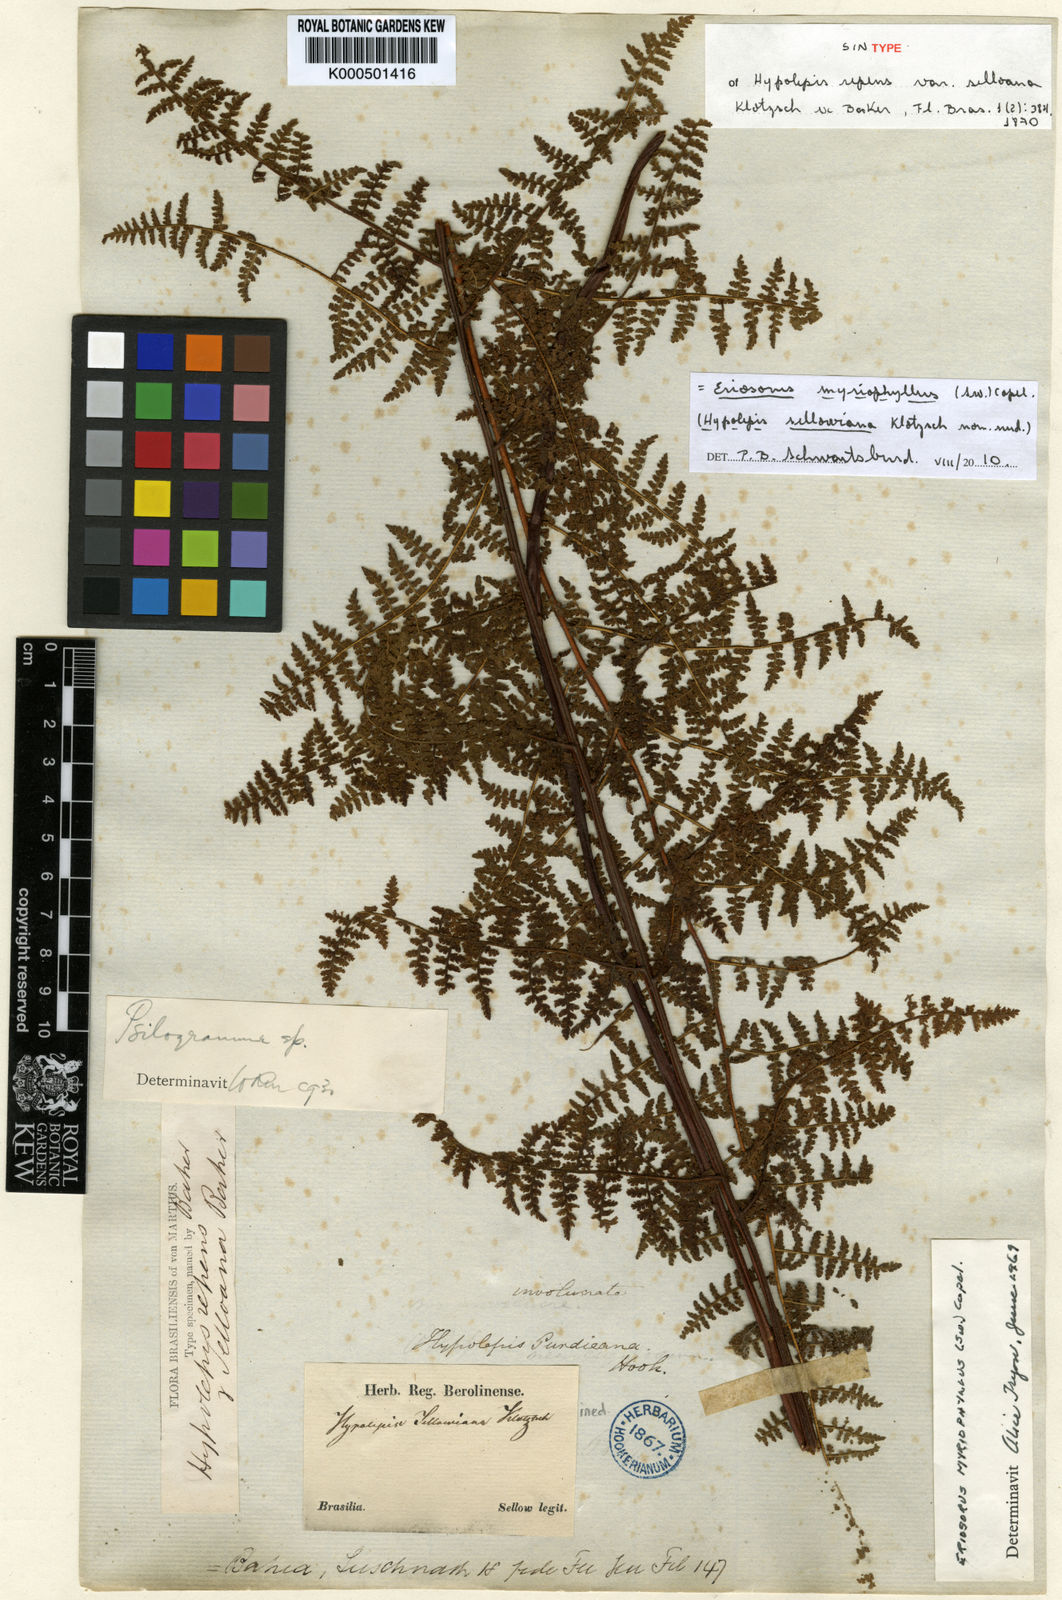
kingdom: Plantae
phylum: Tracheophyta
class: Polypodiopsida
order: Polypodiales
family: Pteridaceae
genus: Tryonia
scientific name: Tryonia myriophylla
